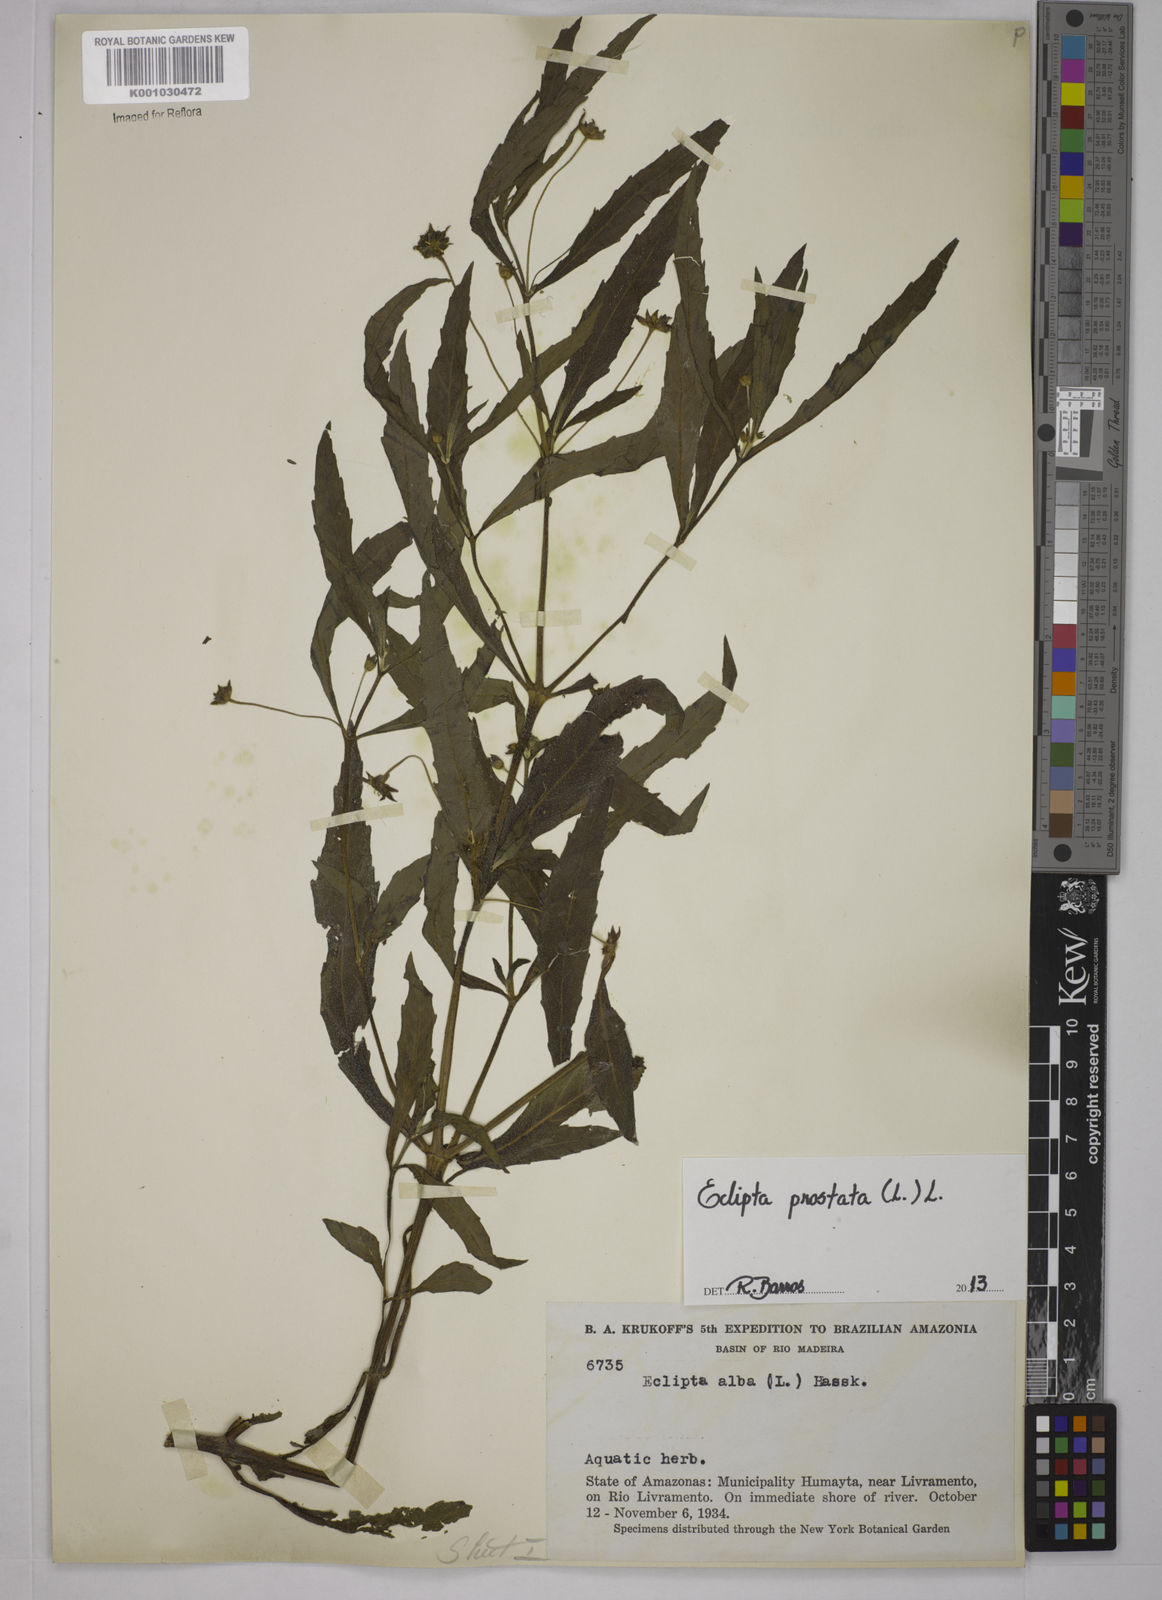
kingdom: Plantae
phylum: Tracheophyta
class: Magnoliopsida
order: Asterales
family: Asteraceae
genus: Eclipta
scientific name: Eclipta prostrata
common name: False daisy
